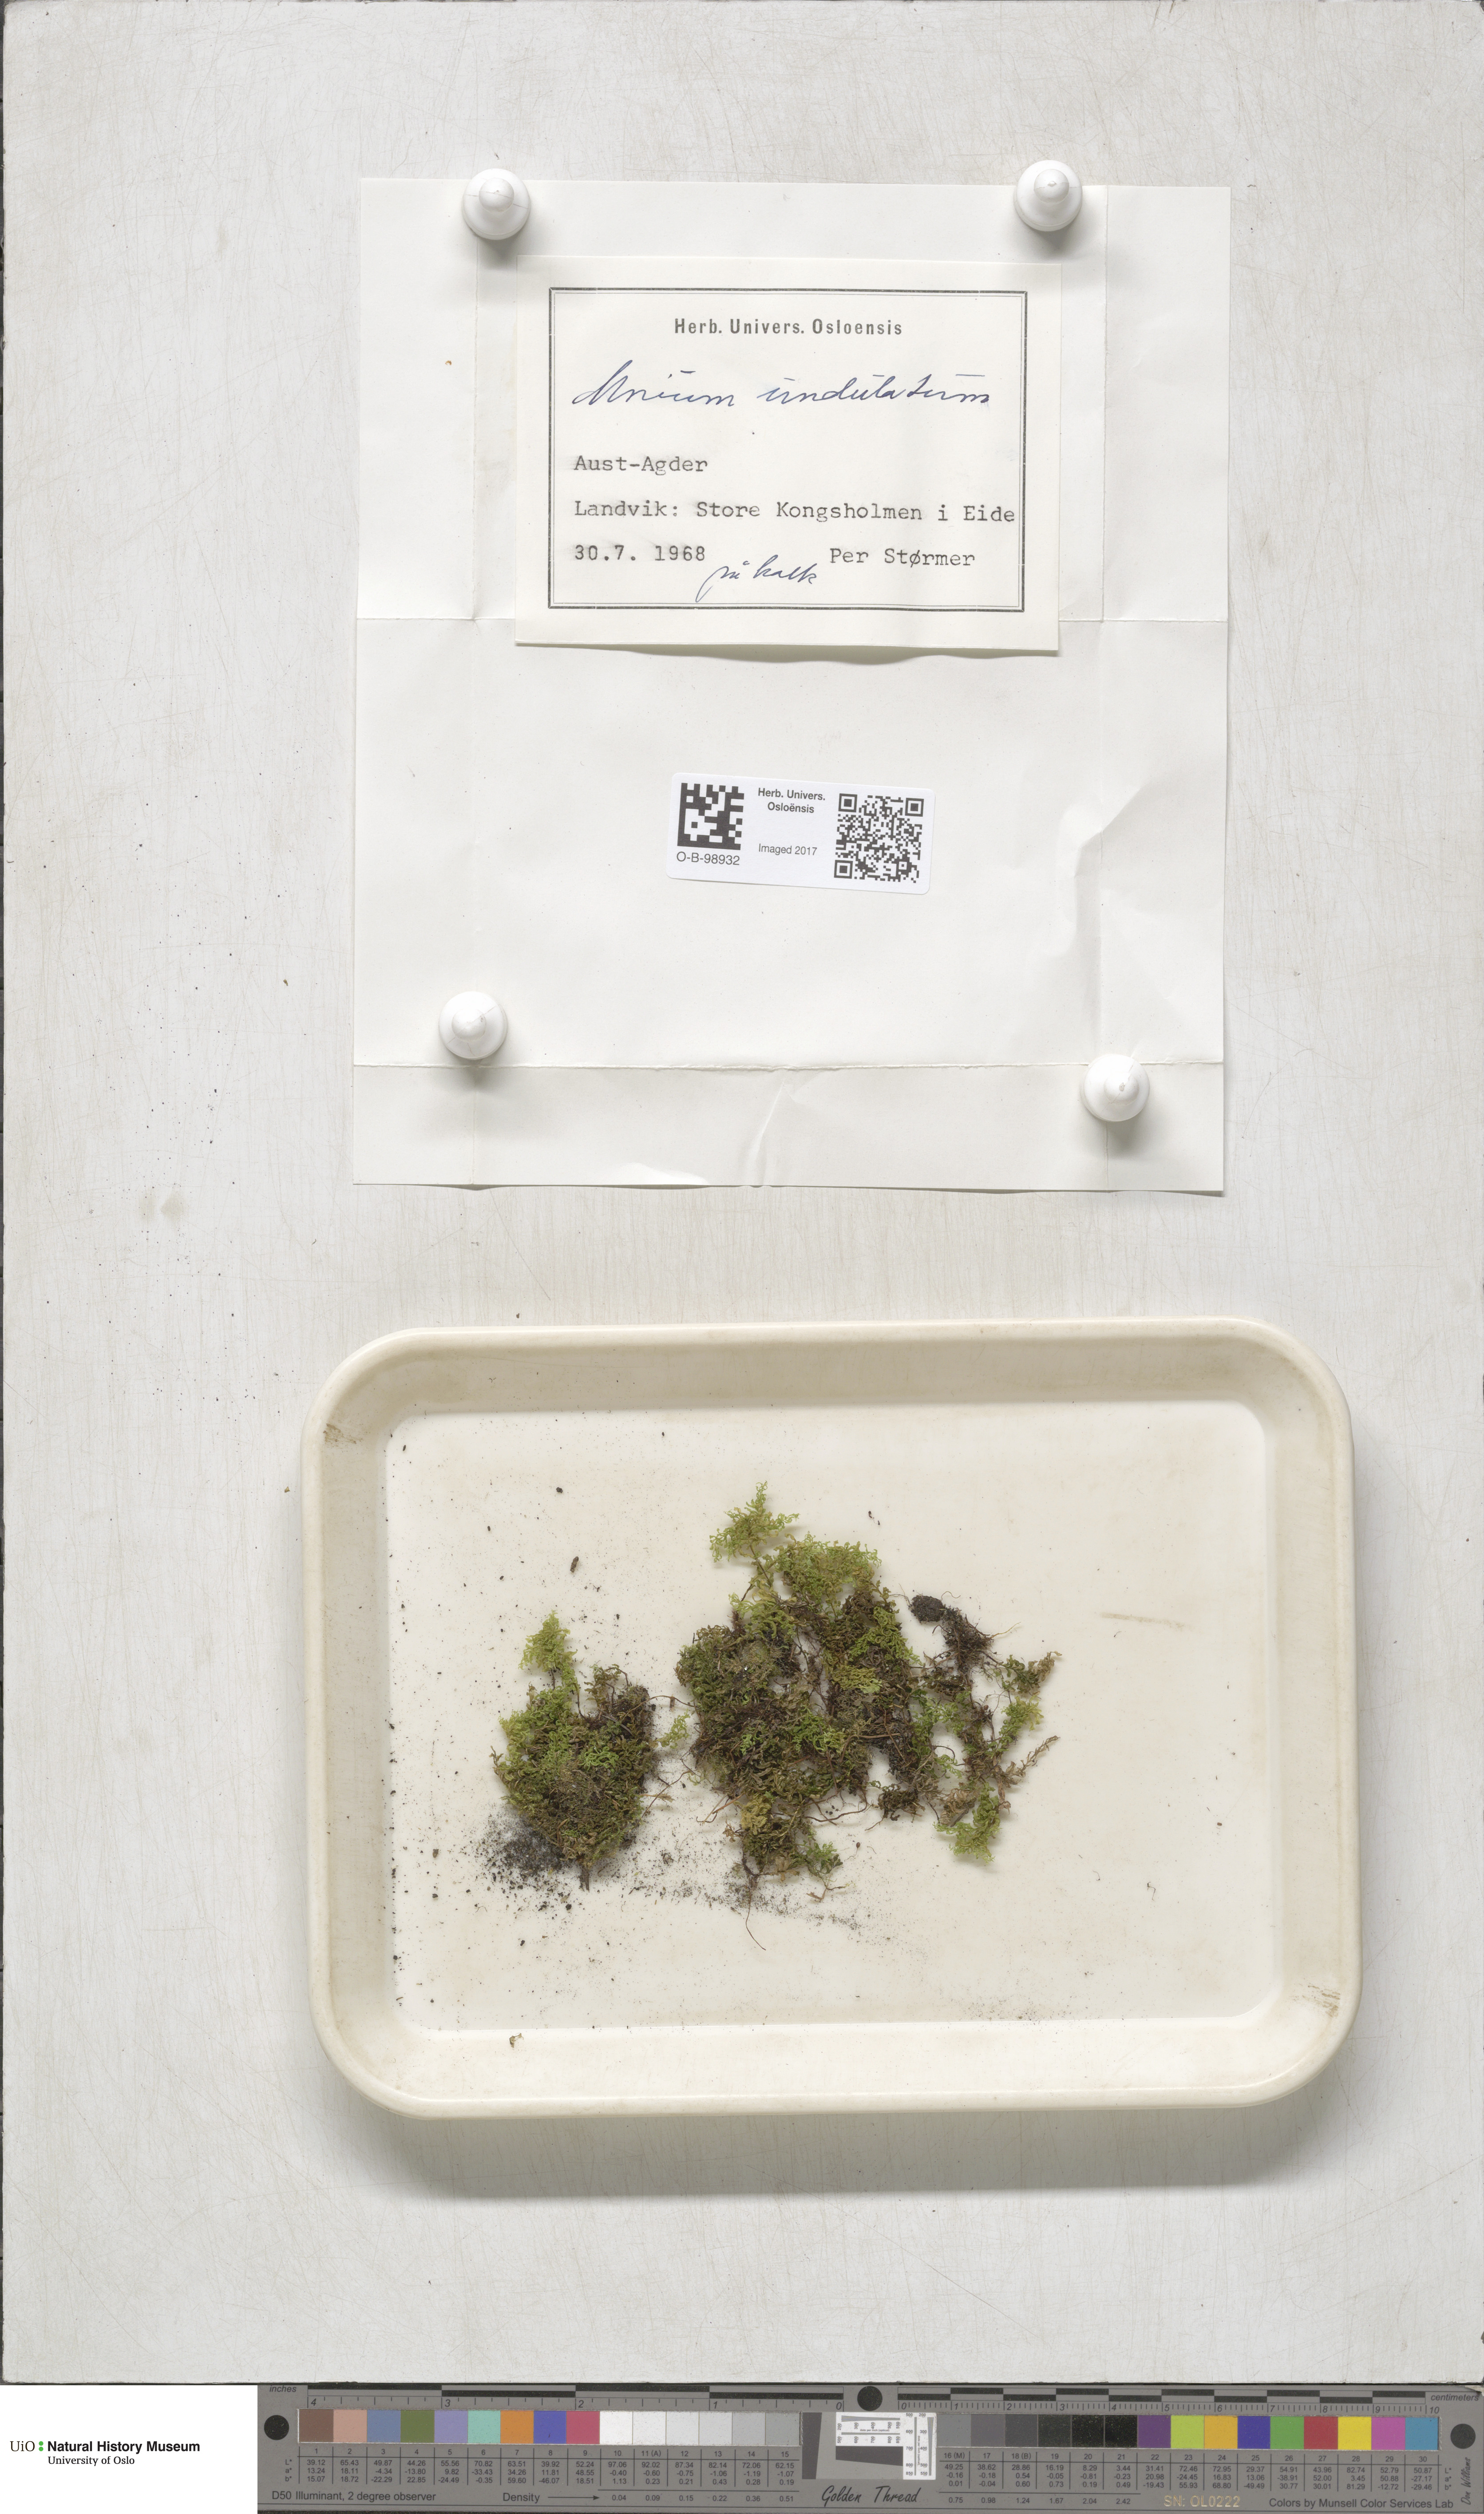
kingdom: Plantae
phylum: Bryophyta
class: Bryopsida
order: Bryales
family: Mniaceae
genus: Plagiomnium
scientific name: Plagiomnium undulatum
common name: Hart's-tongue thyme-moss
